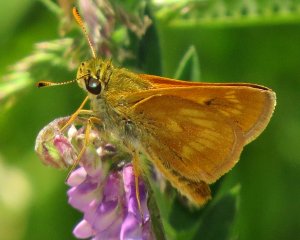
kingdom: Animalia
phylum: Arthropoda
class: Insecta
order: Lepidoptera
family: Hesperiidae
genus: Polites
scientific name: Polites
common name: Long Dash Skipper
